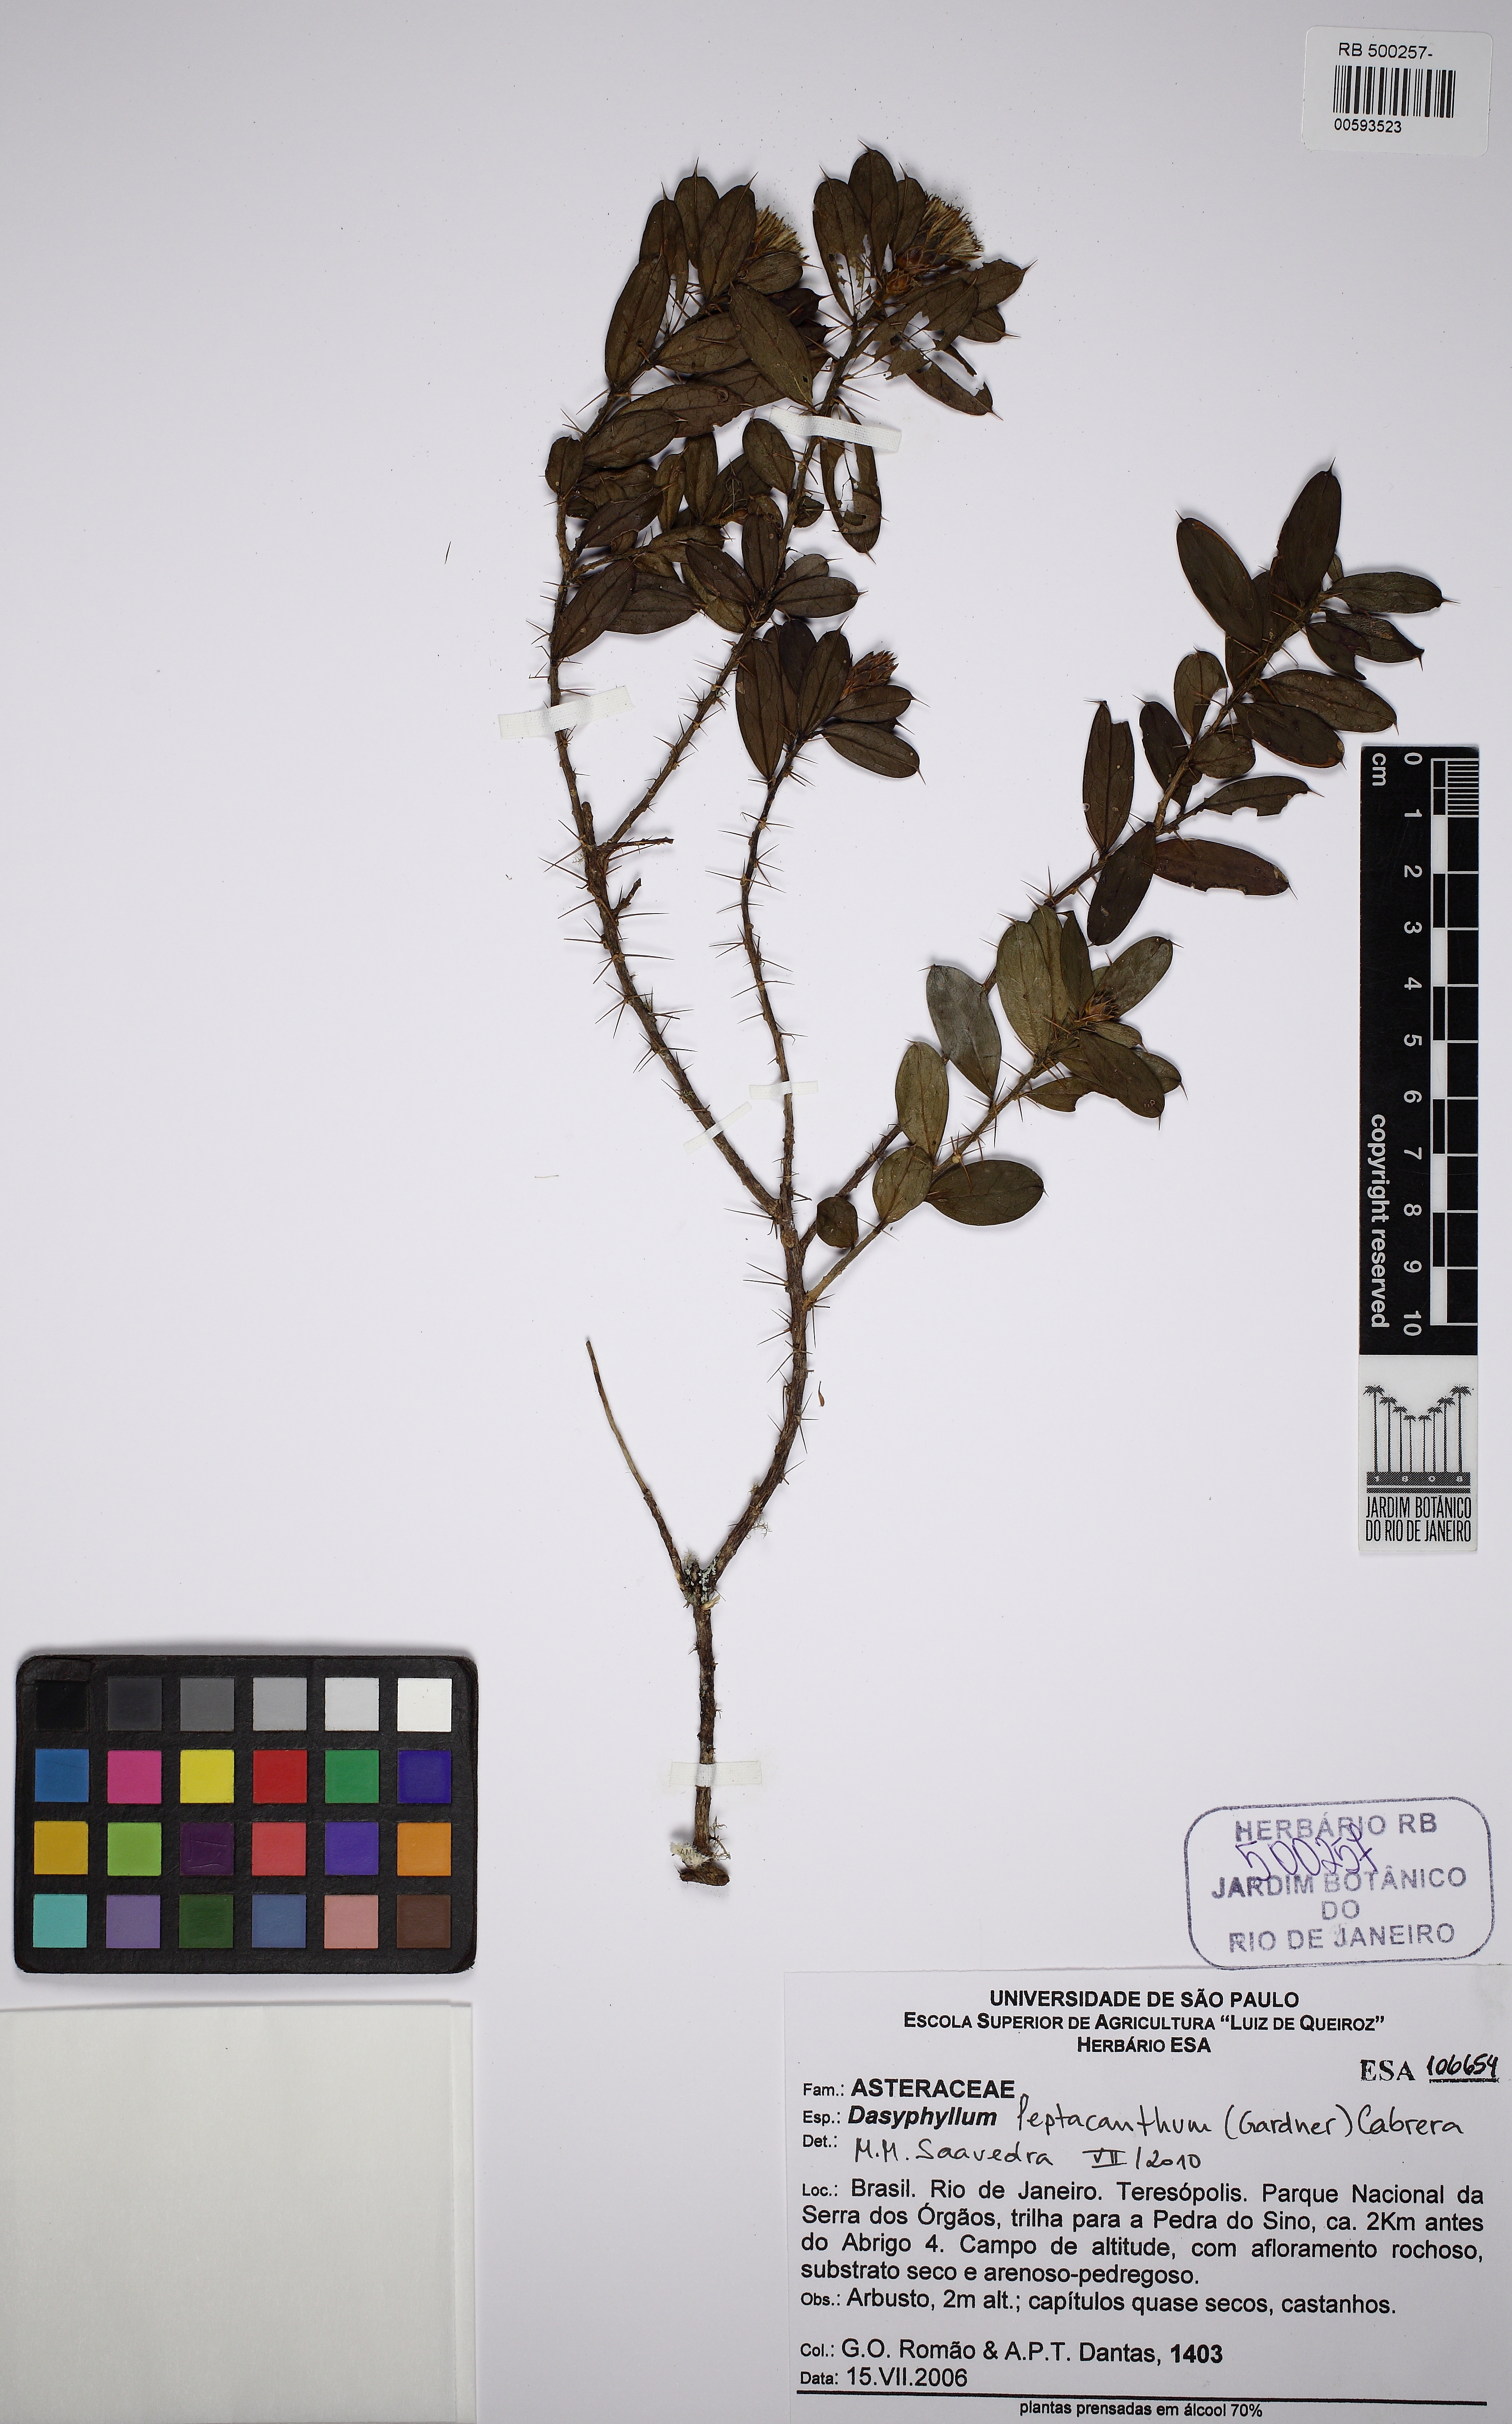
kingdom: Plantae
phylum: Tracheophyta
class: Magnoliopsida
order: Asterales
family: Asteraceae
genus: Dasyphyllum
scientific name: Dasyphyllum leptacanthum
